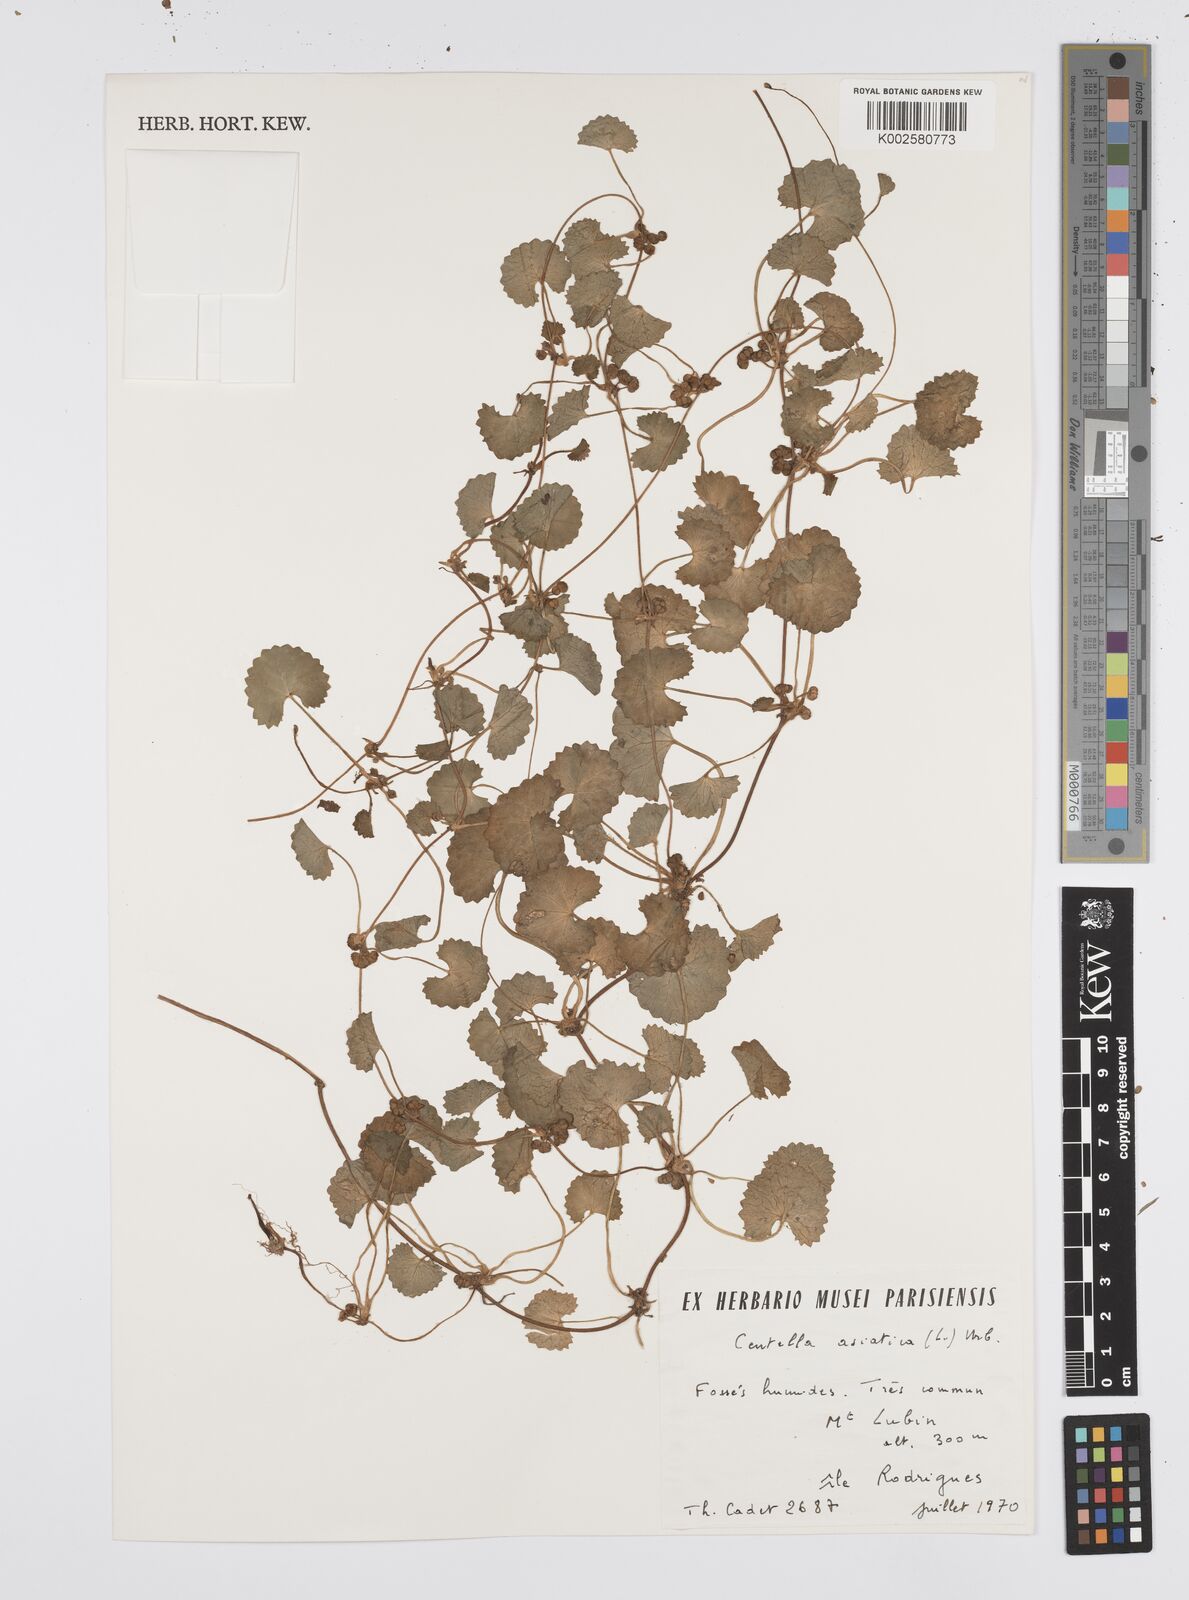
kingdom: Plantae
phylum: Tracheophyta
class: Magnoliopsida
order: Apiales
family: Apiaceae
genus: Centella
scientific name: Centella asiatica
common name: Spadeleaf
